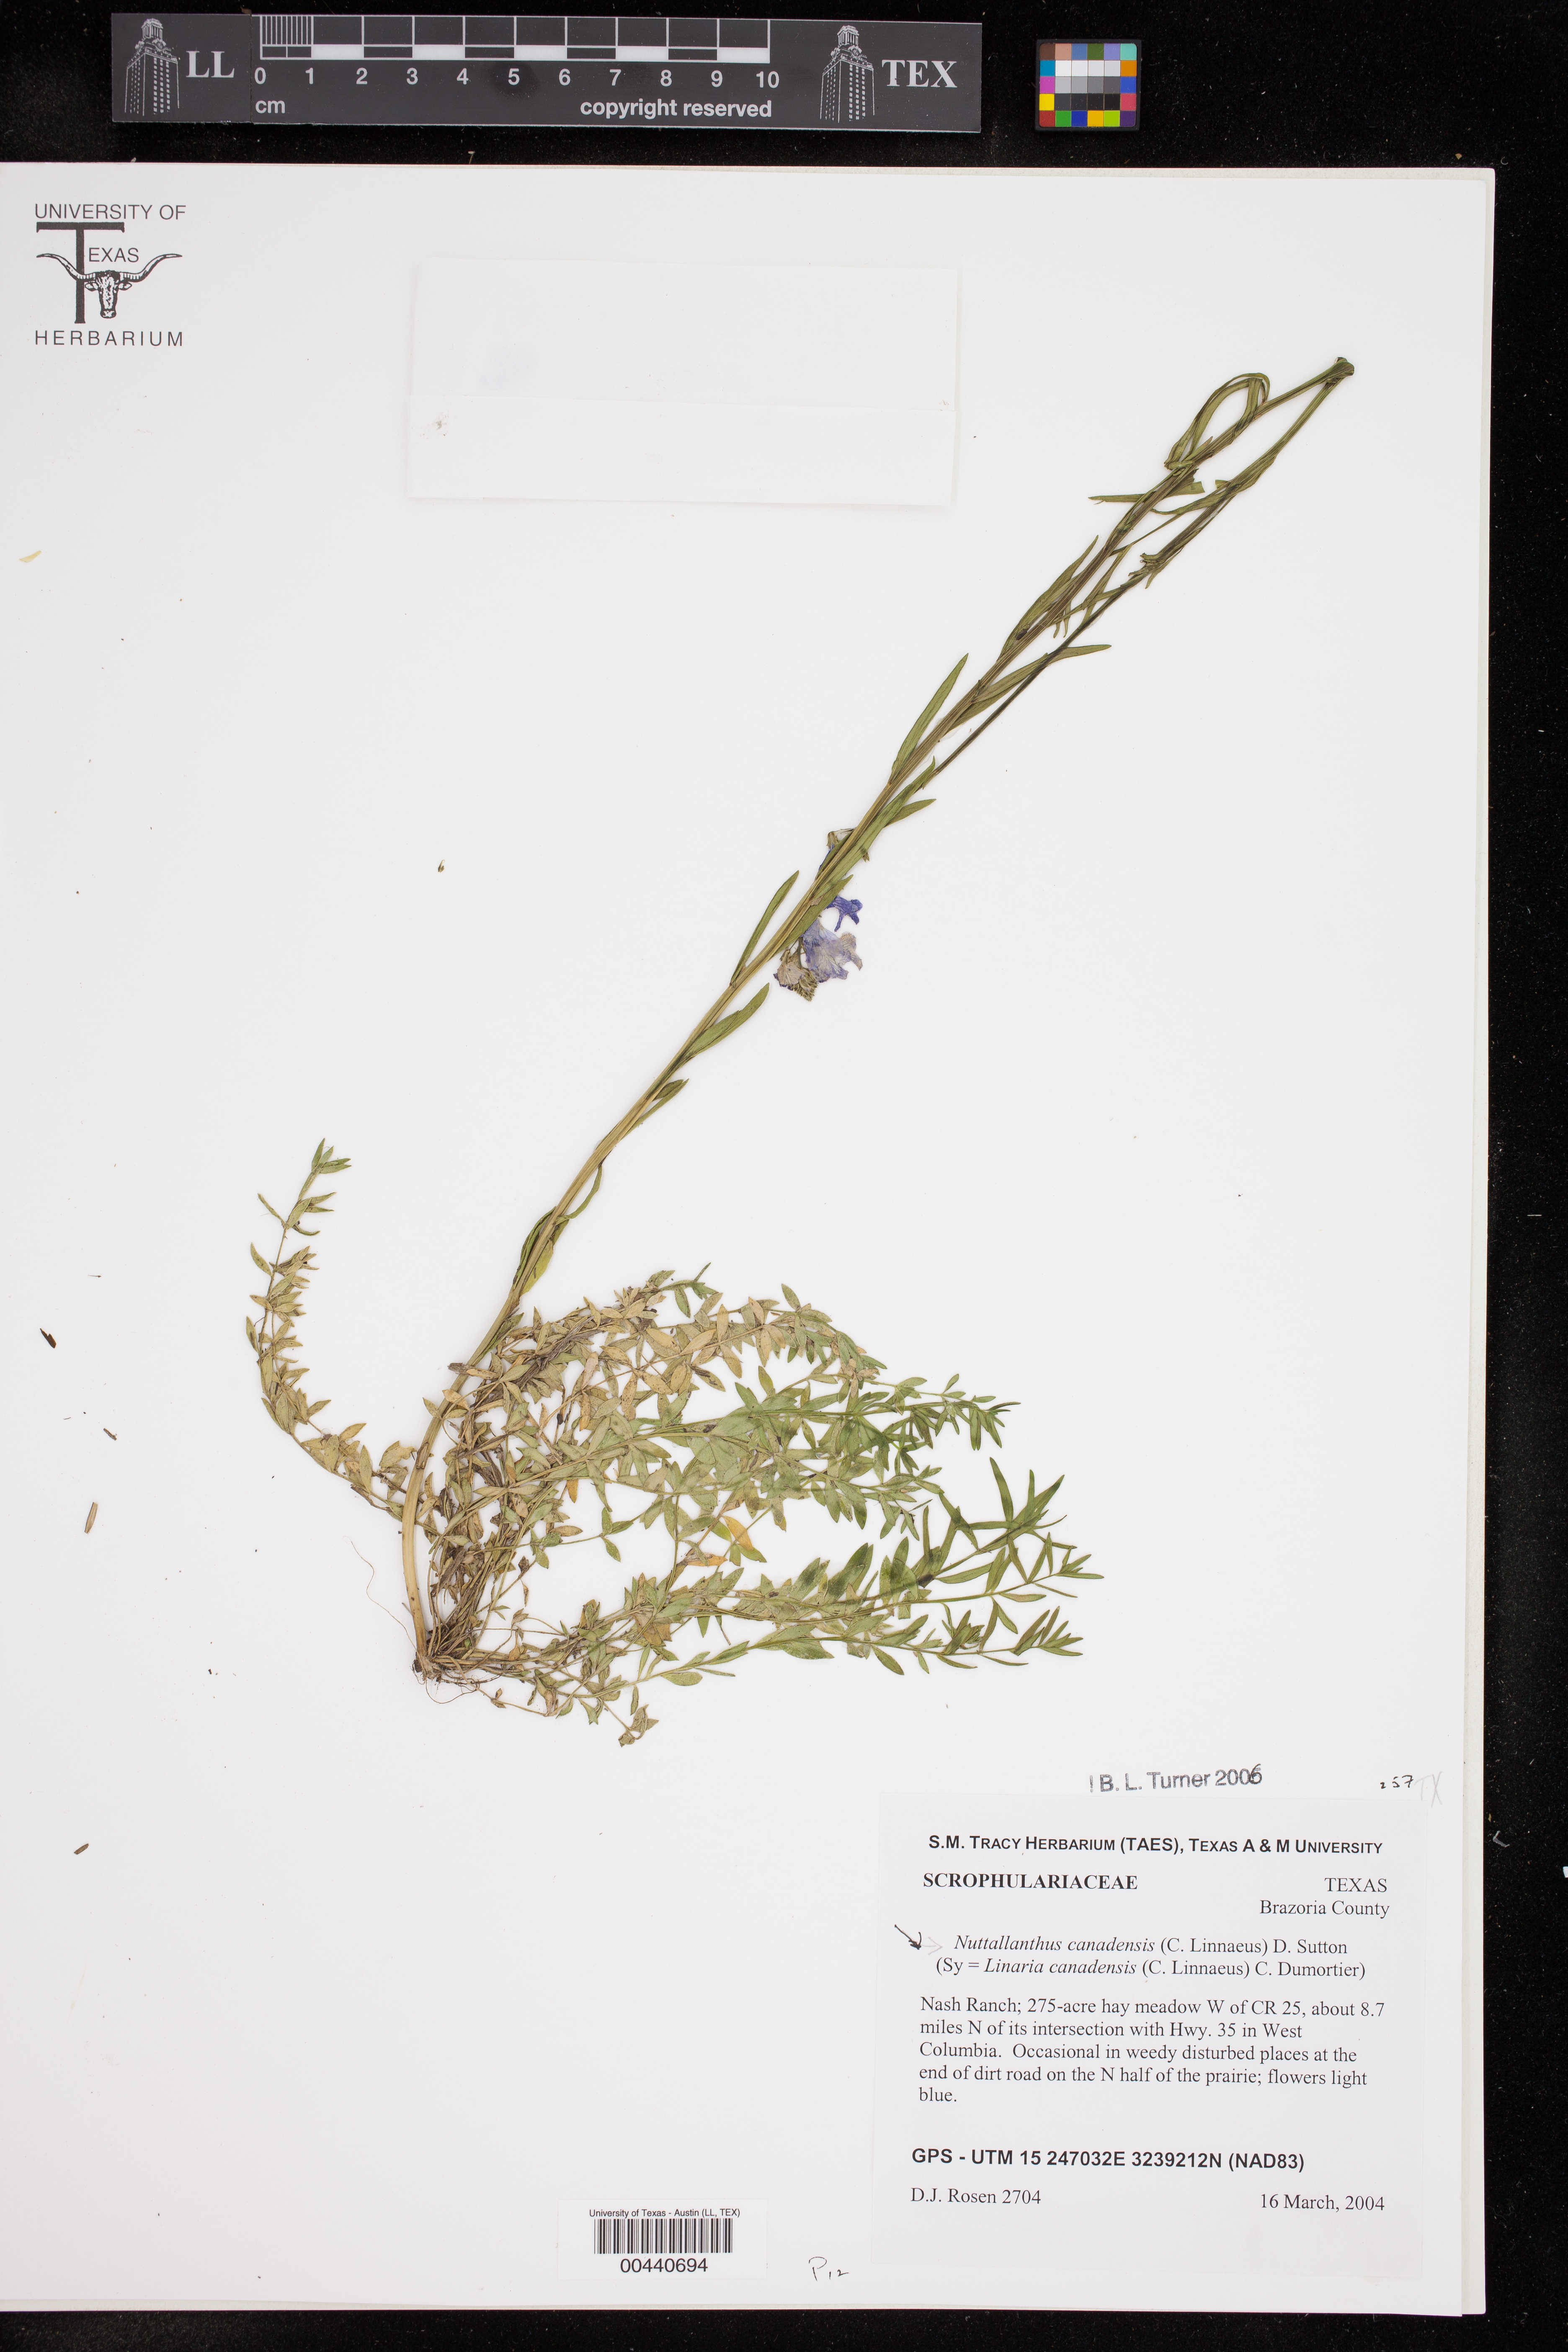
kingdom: Plantae
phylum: Tracheophyta
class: Magnoliopsida
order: Lamiales
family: Plantaginaceae
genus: Nuttallanthus
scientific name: Nuttallanthus canadensis
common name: Blue toadflax
